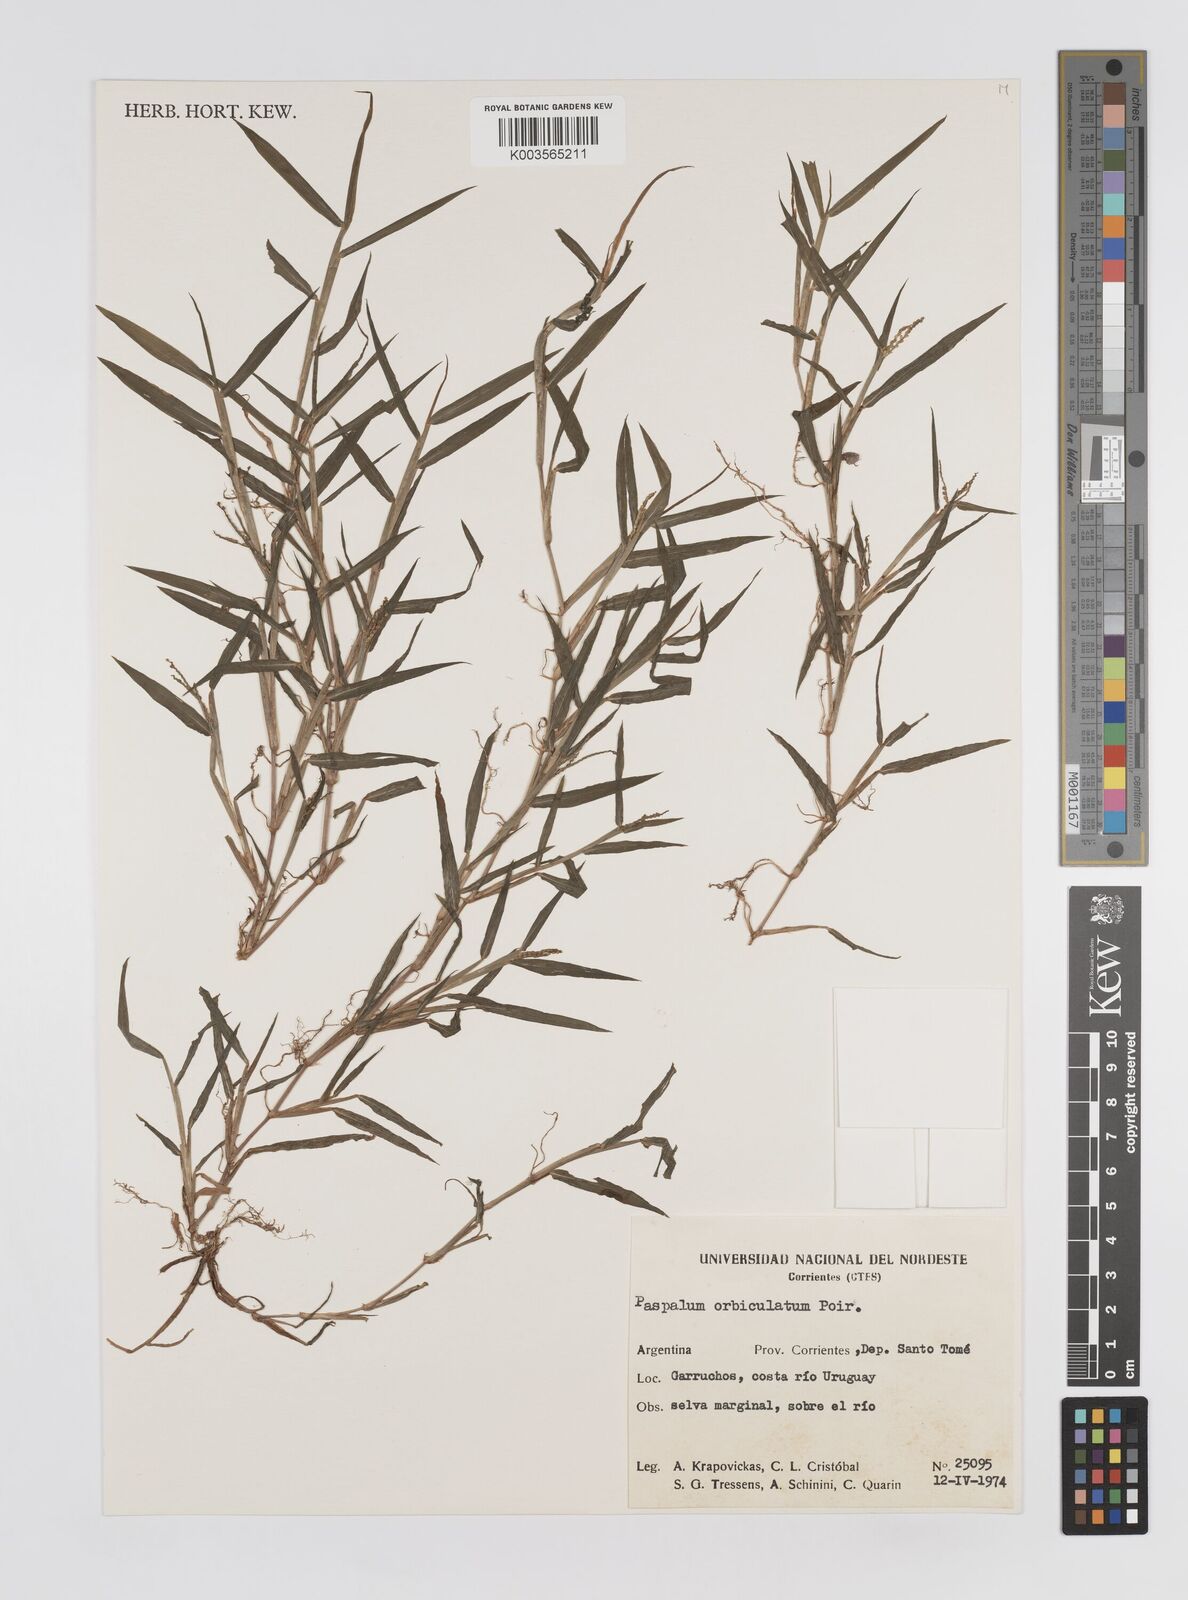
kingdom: Plantae
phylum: Tracheophyta
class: Liliopsida
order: Poales
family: Poaceae
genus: Paspalum
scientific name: Paspalum orbiculatum
